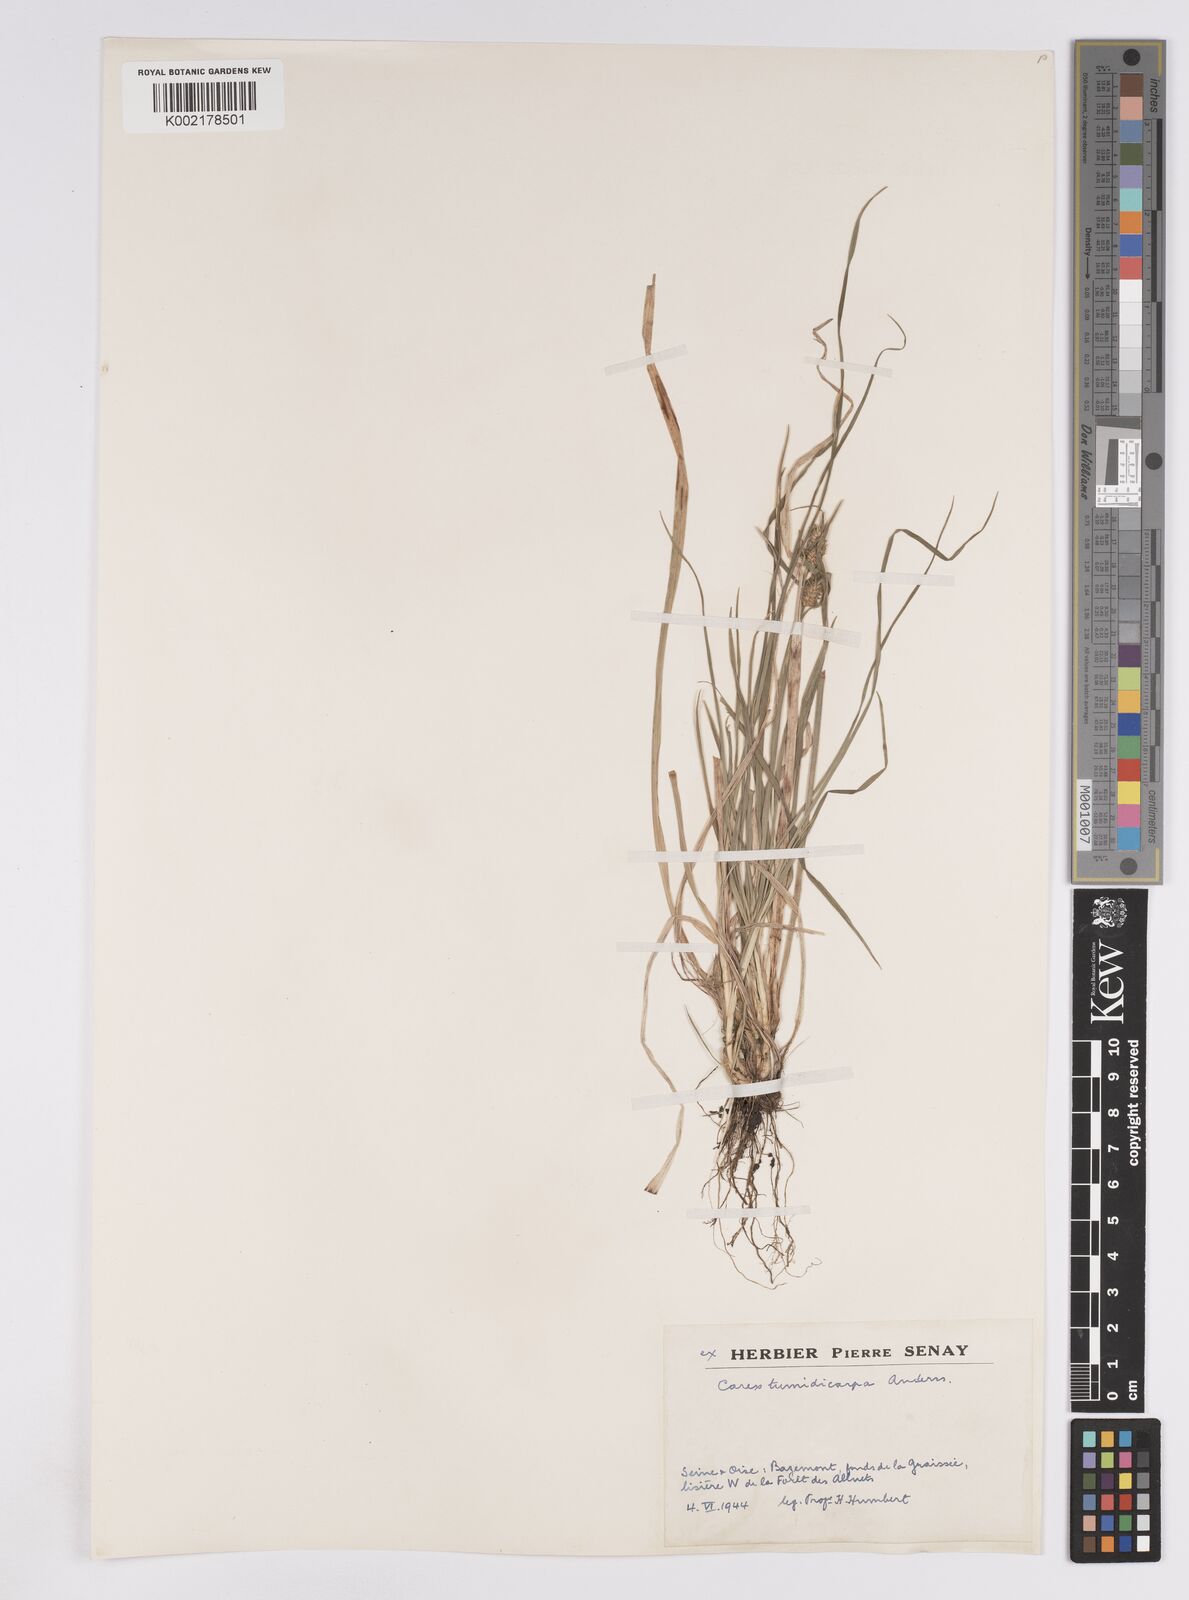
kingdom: Plantae
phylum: Tracheophyta
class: Liliopsida
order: Poales
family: Cyperaceae
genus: Carex
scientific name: Carex demissa
